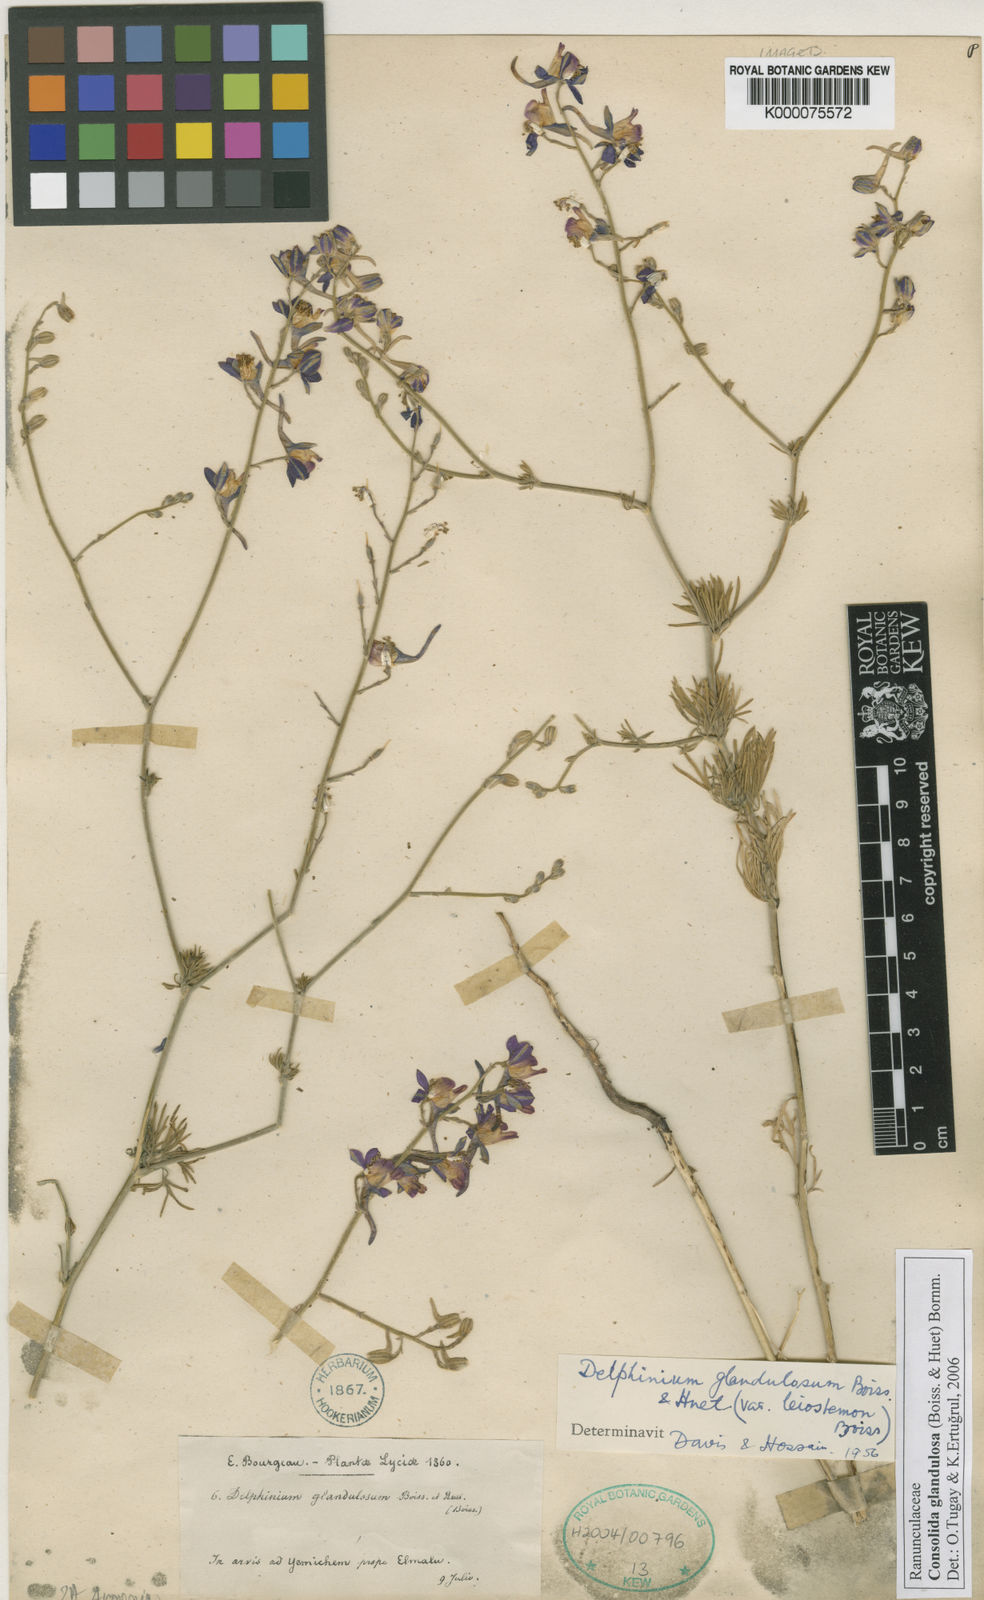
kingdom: Plantae
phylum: Tracheophyta
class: Magnoliopsida
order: Ranunculales
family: Ranunculaceae
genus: Delphinium
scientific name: Delphinium glandulosum
